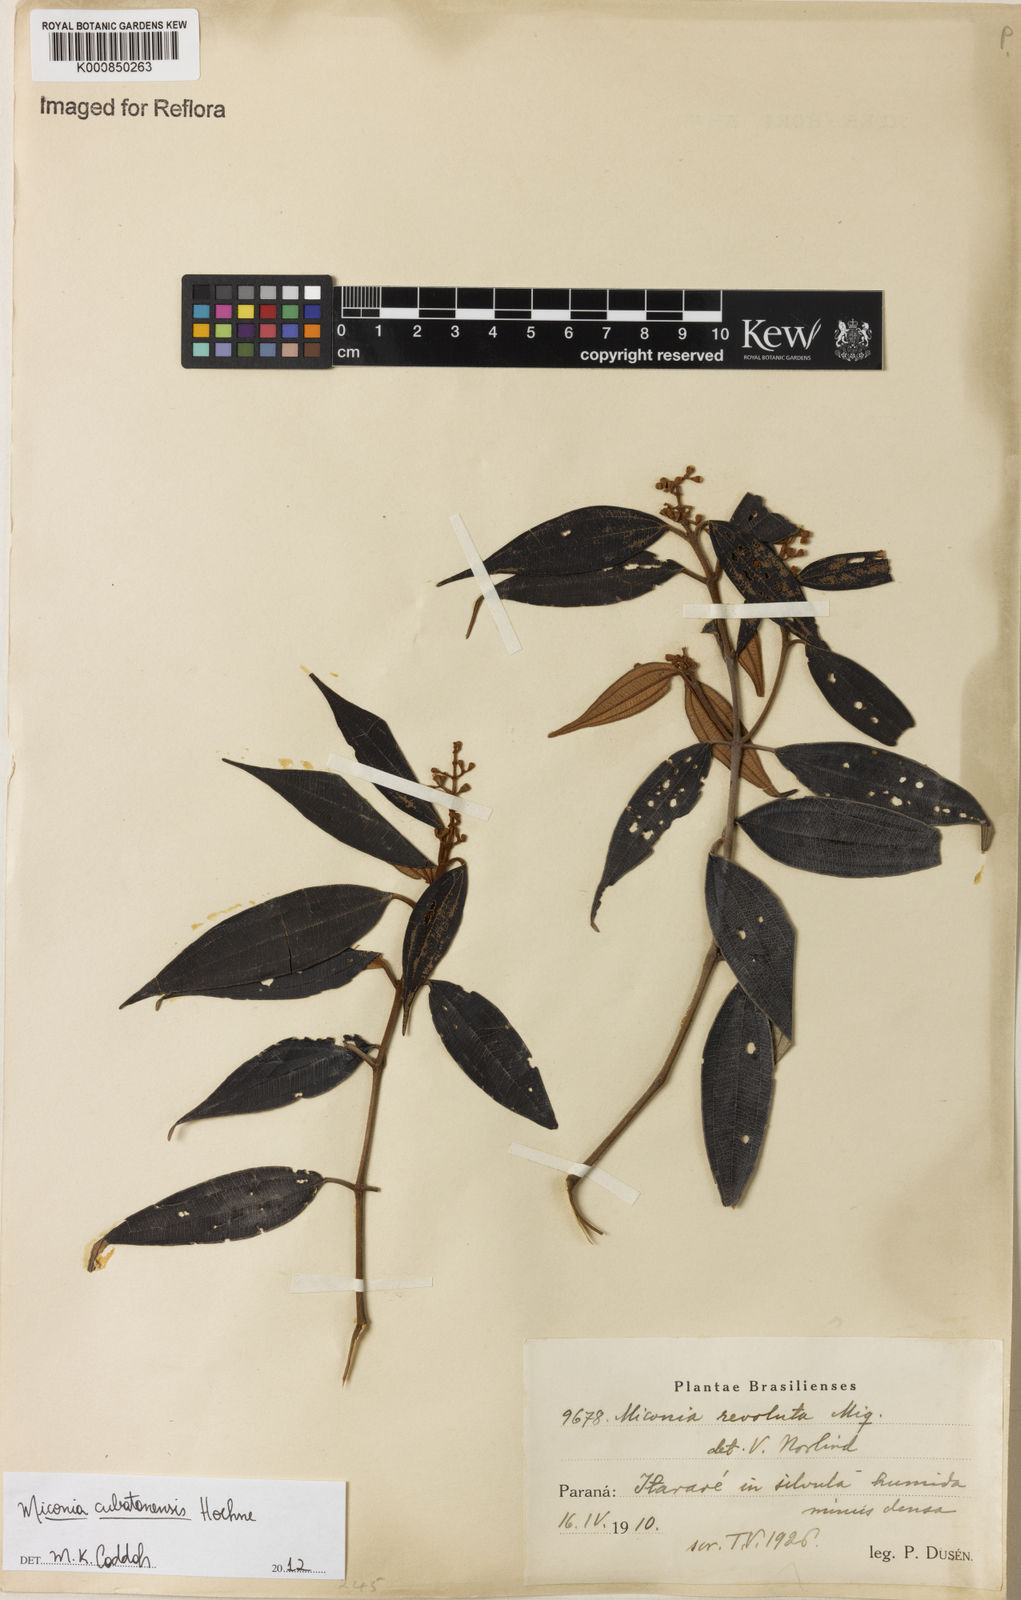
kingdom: Plantae
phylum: Tracheophyta
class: Magnoliopsida
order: Myrtales
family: Melastomataceae
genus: Miconia
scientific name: Miconia cubatanensis
